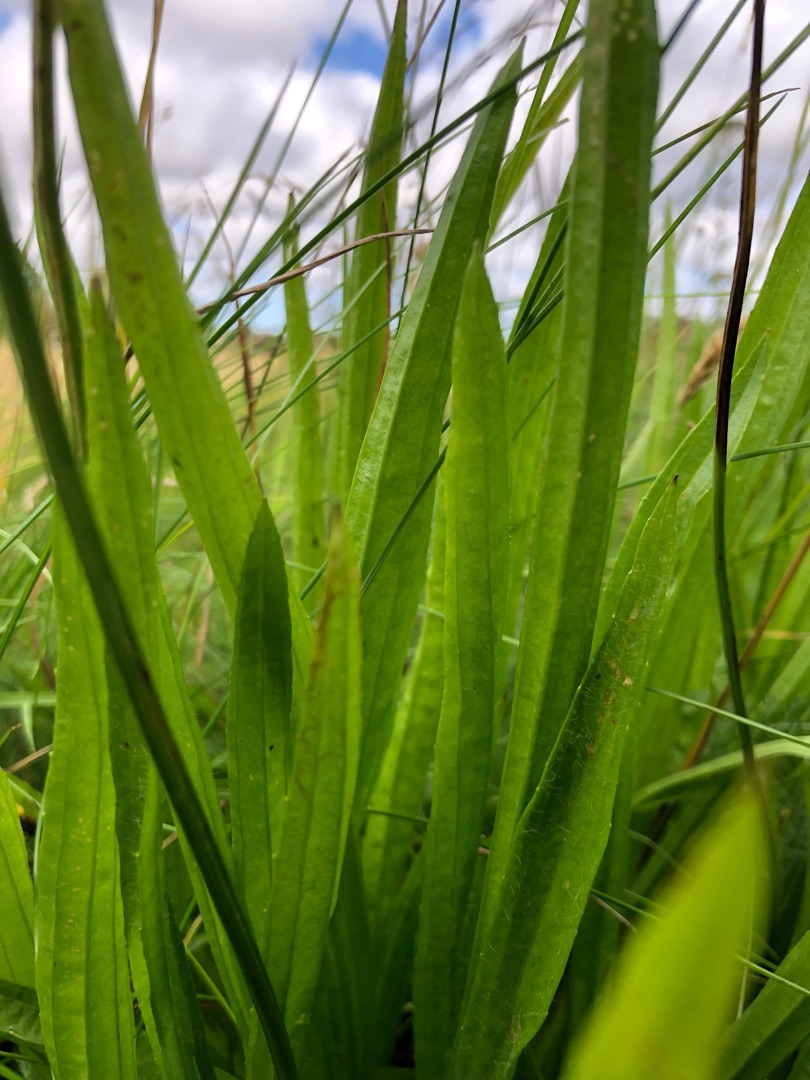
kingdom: Plantae
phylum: Tracheophyta
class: Magnoliopsida
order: Lamiales
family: Plantaginaceae
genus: Plantago
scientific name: Plantago lanceolata
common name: Lancet-vejbred
